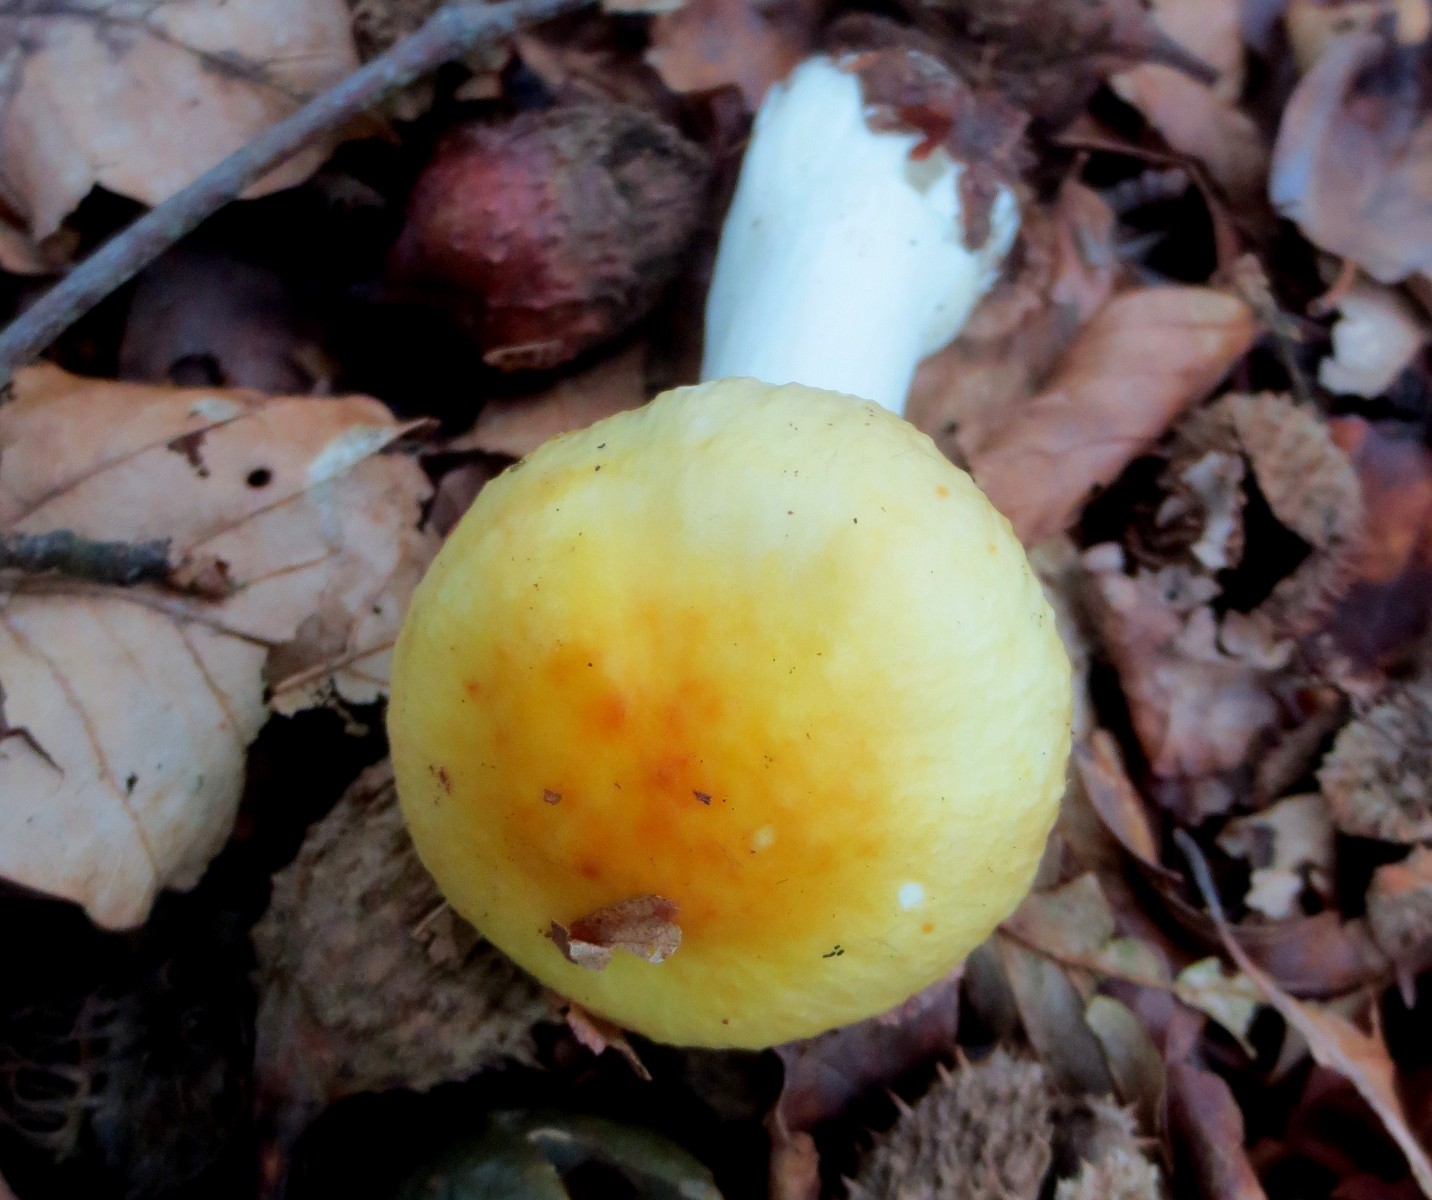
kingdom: Fungi
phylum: Basidiomycota
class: Agaricomycetes
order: Russulales
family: Russulaceae
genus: Russula
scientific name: Russula solaris
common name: sol-skørhat
